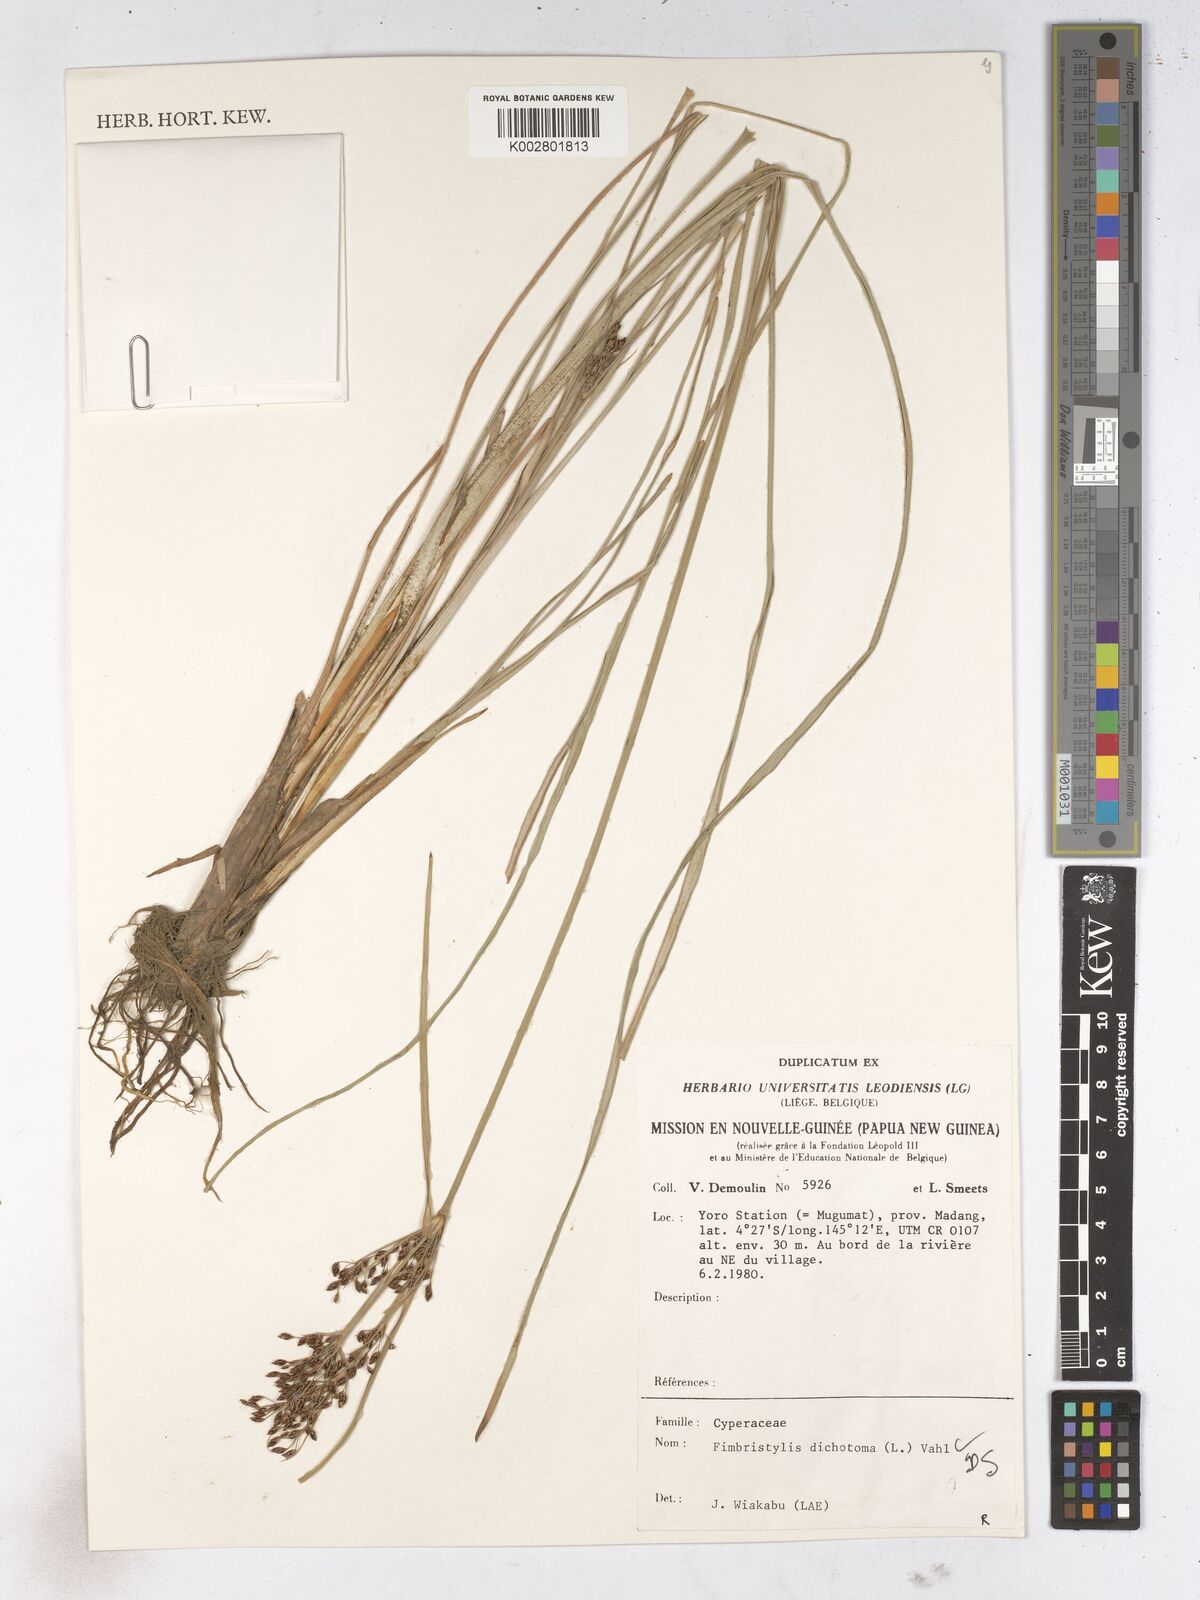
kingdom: Plantae
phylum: Tracheophyta
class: Liliopsida
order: Poales
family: Cyperaceae
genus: Fimbristylis
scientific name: Fimbristylis dichotoma
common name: Forked fimbry
